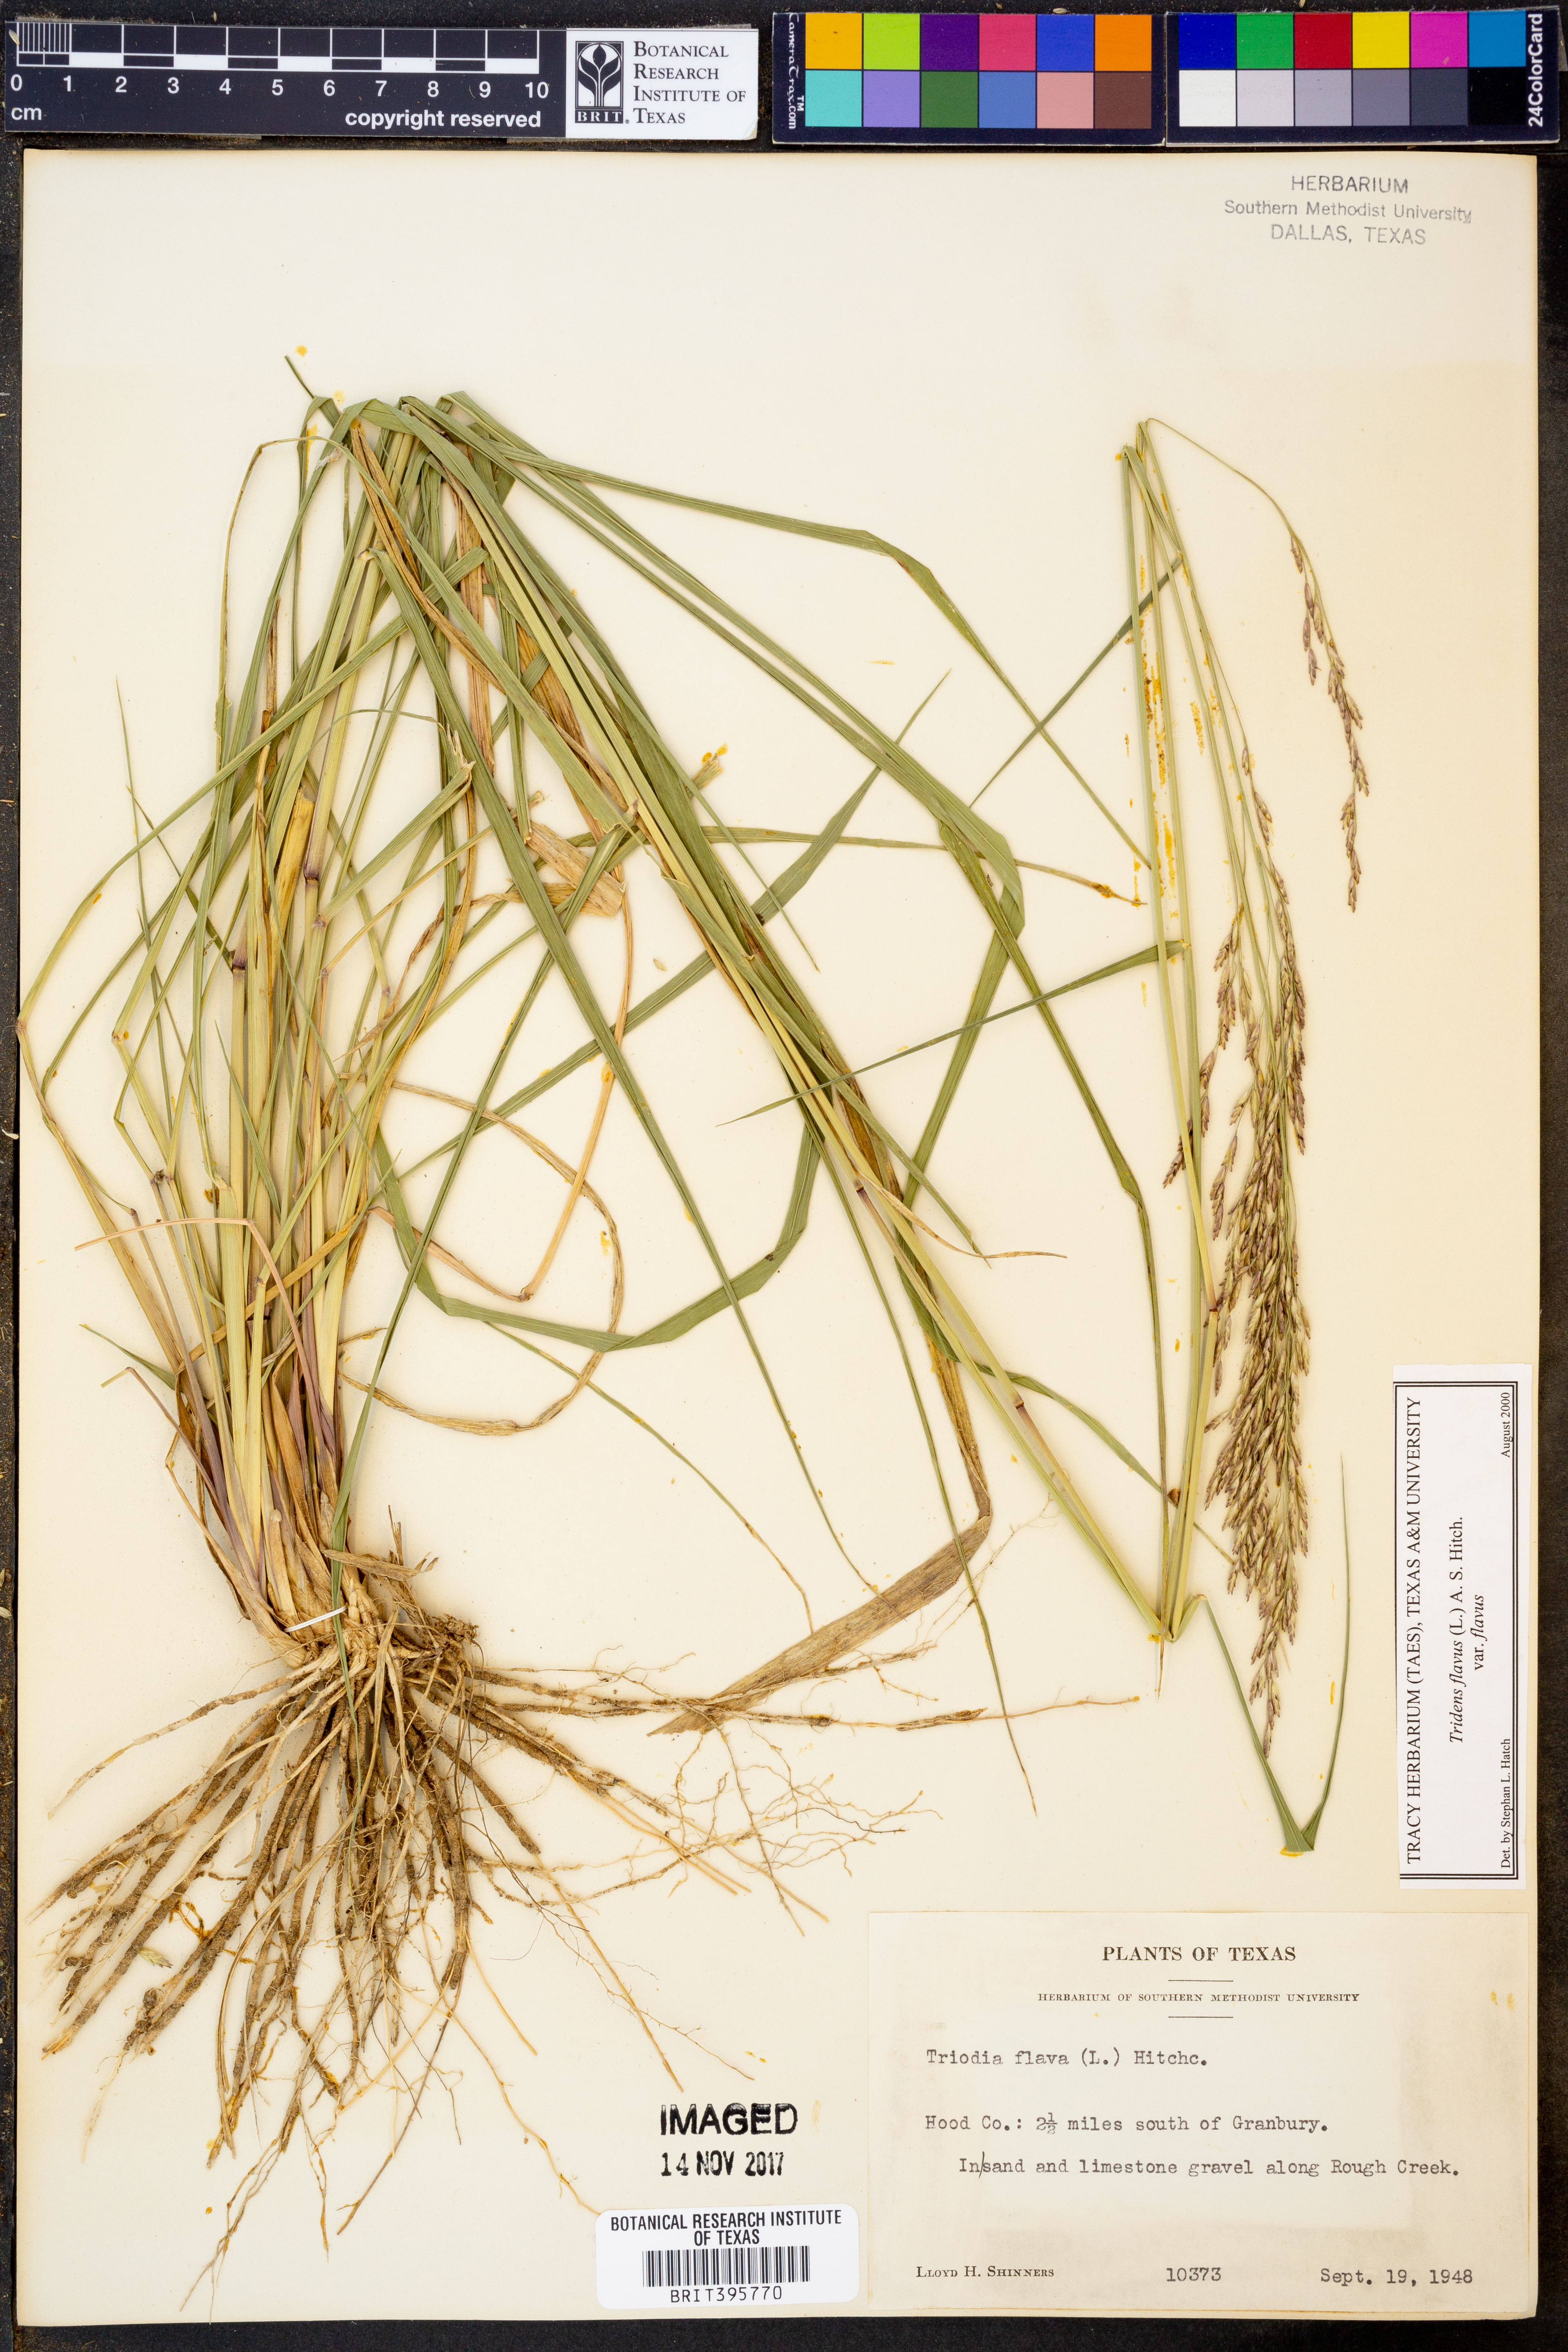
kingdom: Plantae
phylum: Tracheophyta
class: Liliopsida
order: Poales
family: Poaceae
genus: Tridens
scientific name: Tridens flavus
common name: Purpletop
